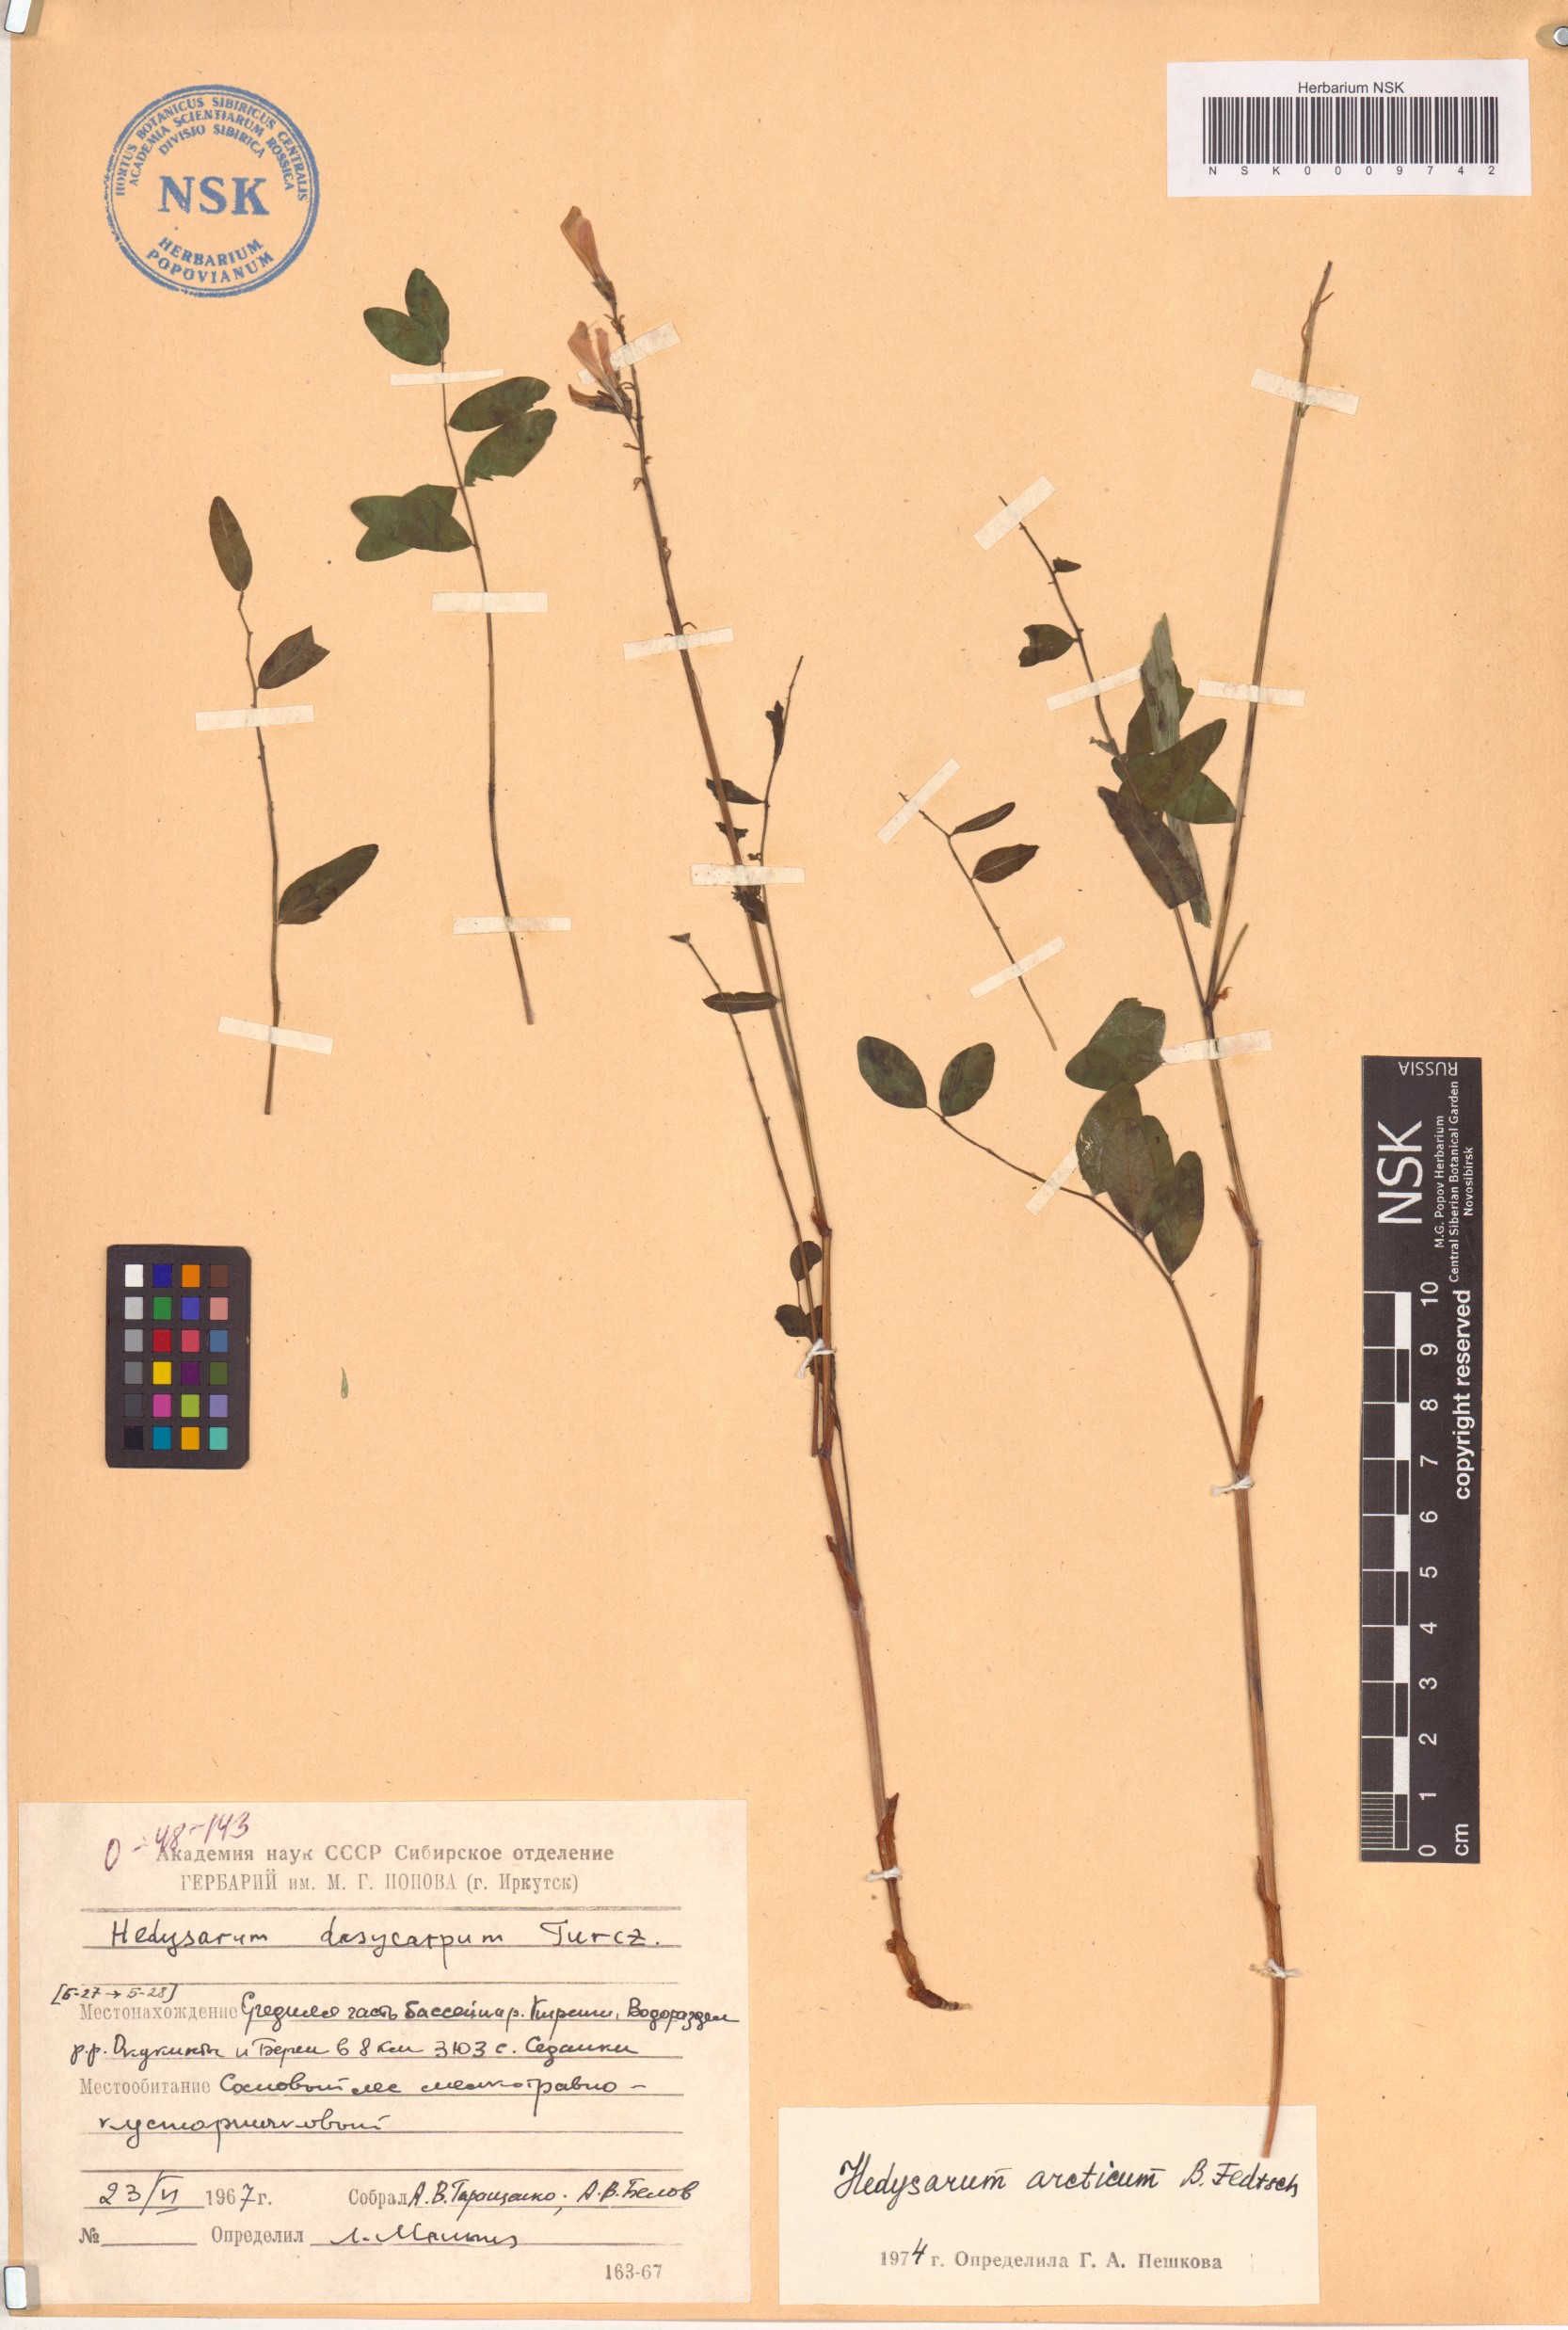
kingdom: Plantae
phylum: Tracheophyta
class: Magnoliopsida
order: Fabales
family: Fabaceae
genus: Hedysarum
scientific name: Hedysarum hedysaroides
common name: Alpine french-honeysuckle
